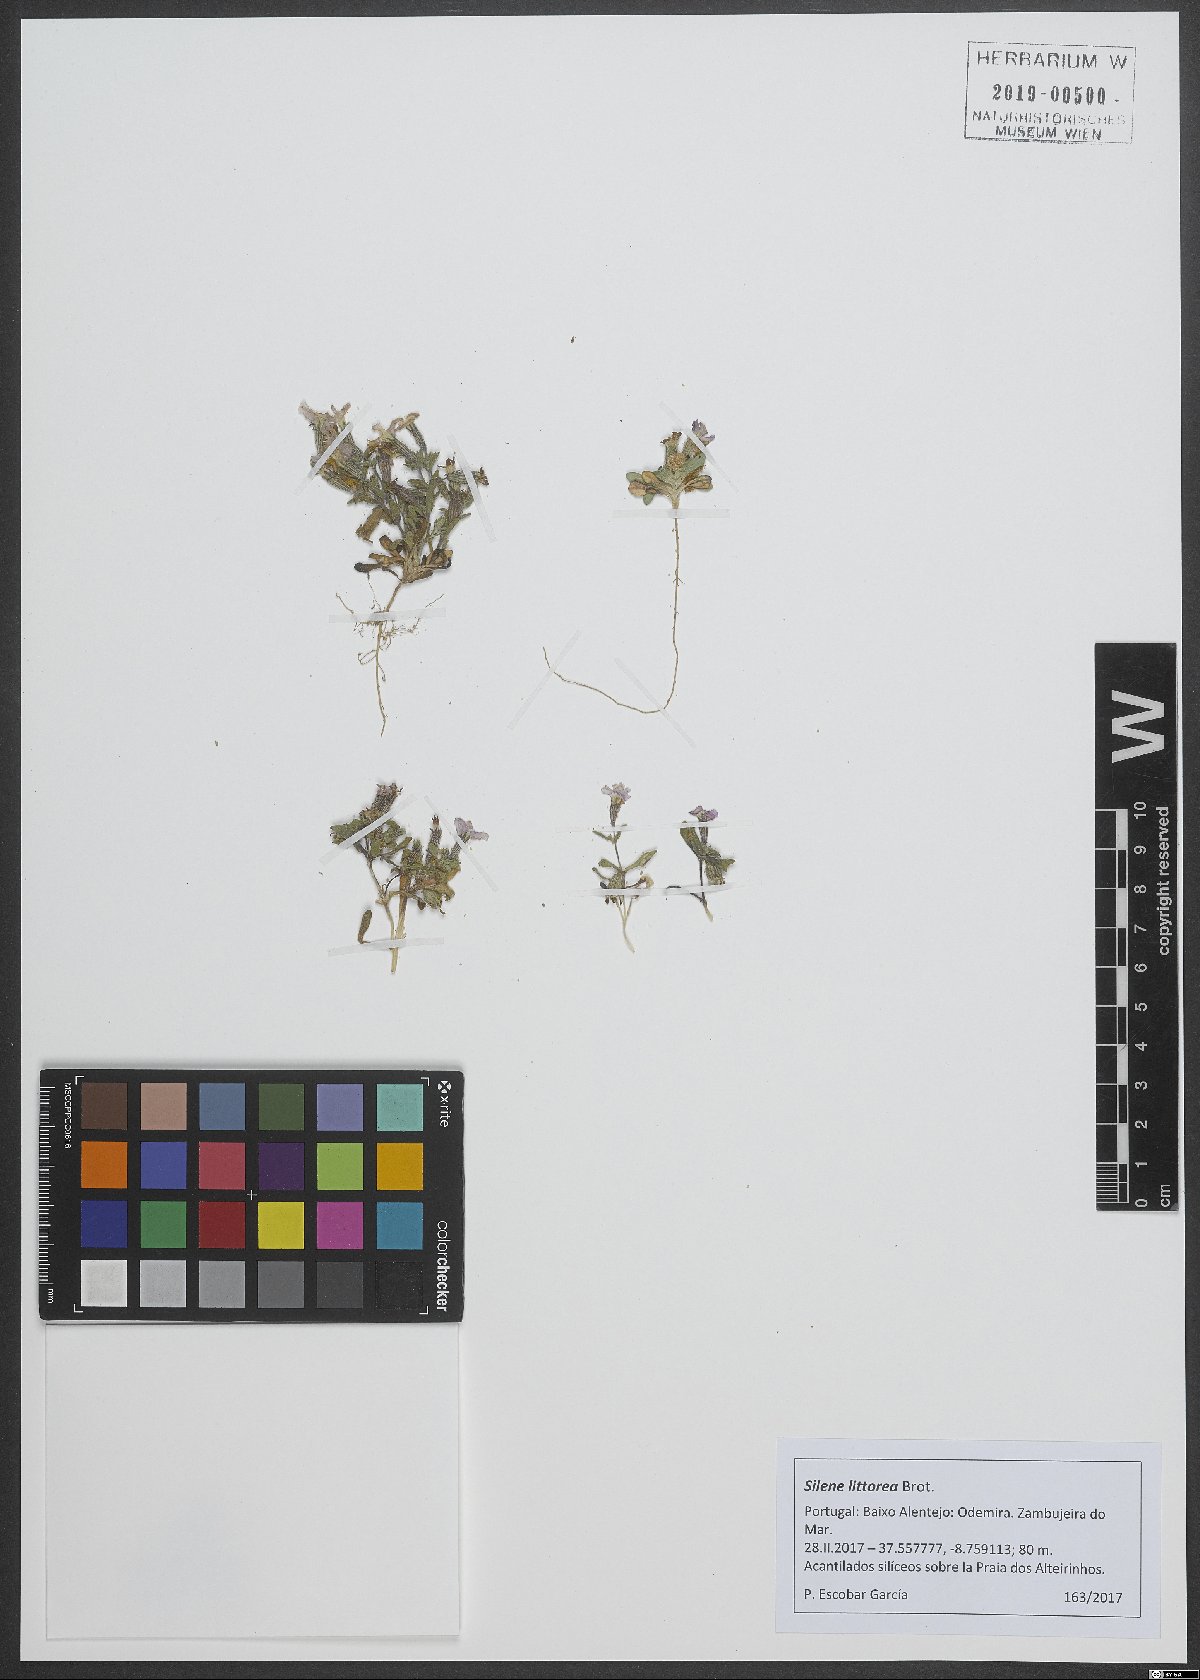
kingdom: Plantae
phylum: Tracheophyta
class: Magnoliopsida
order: Caryophyllales
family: Caryophyllaceae
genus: Silene
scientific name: Silene littorea
